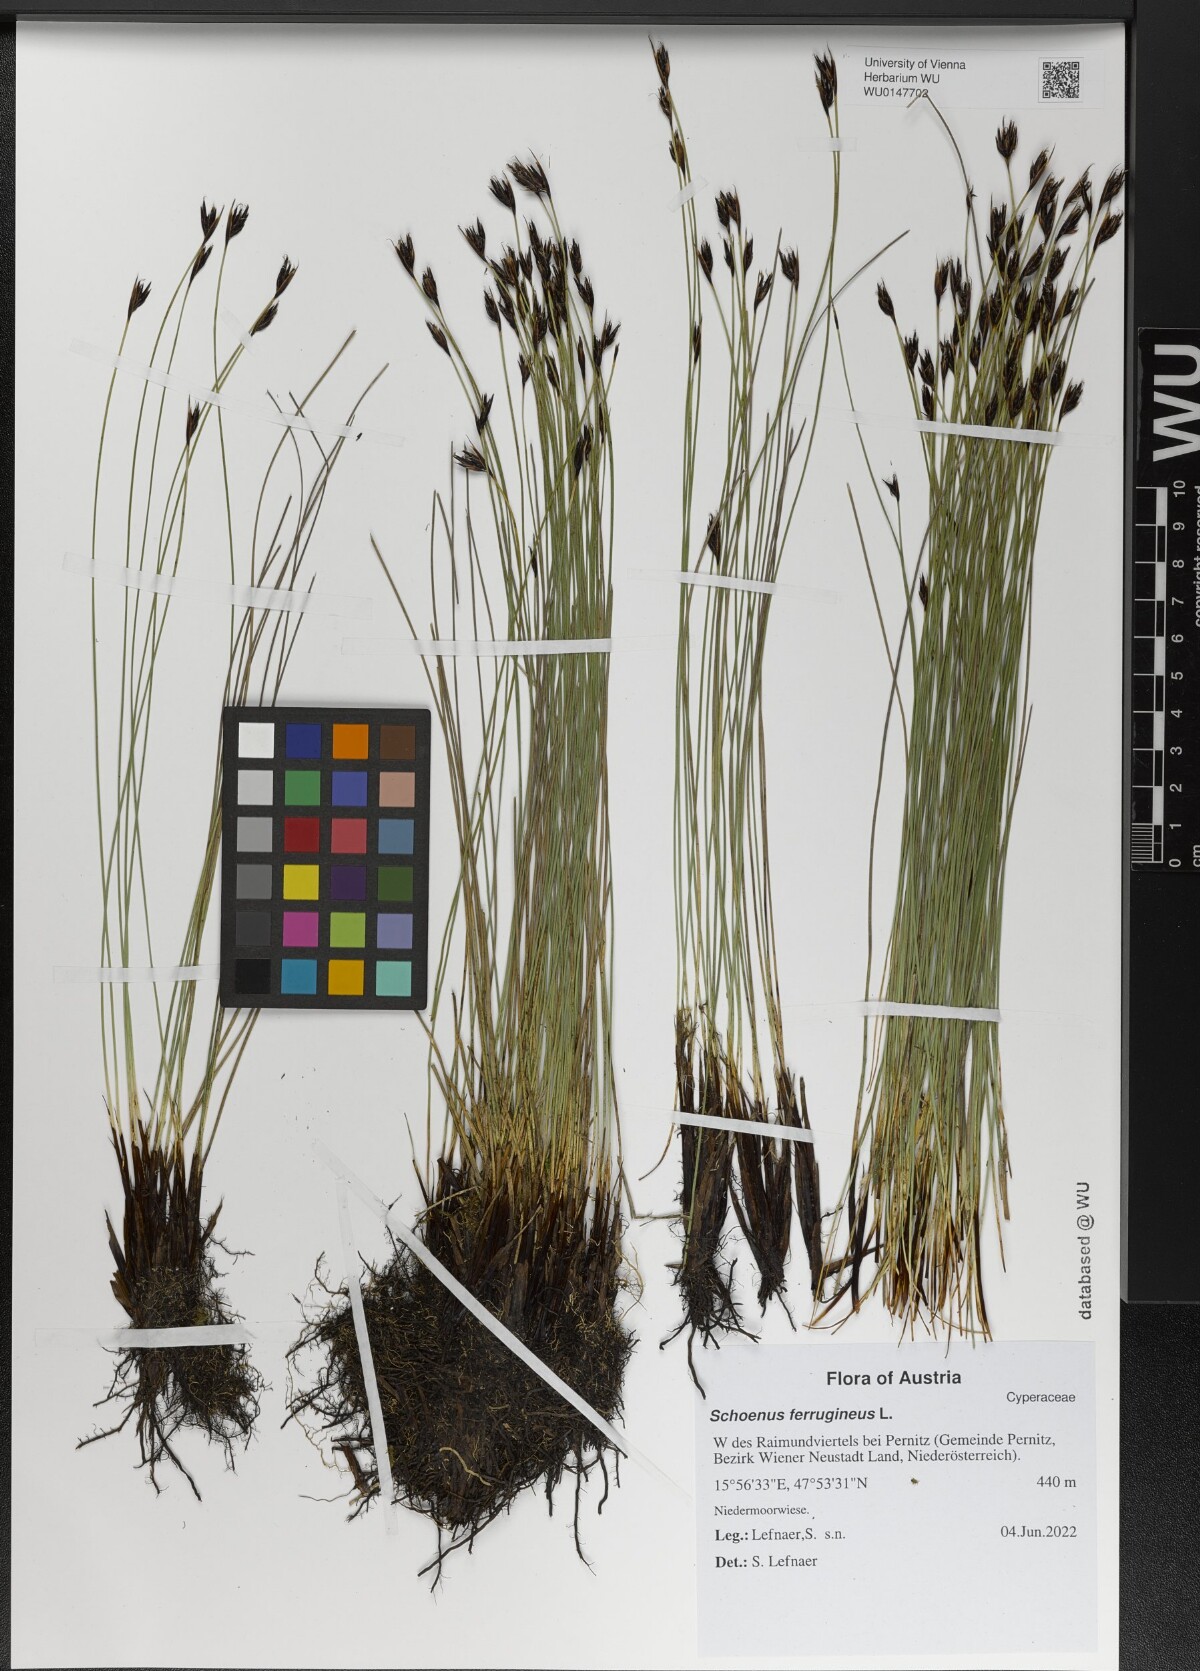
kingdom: Plantae
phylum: Tracheophyta
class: Liliopsida
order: Poales
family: Cyperaceae
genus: Schoenus
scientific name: Schoenus ferrugineus
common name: Brown bog-rush
